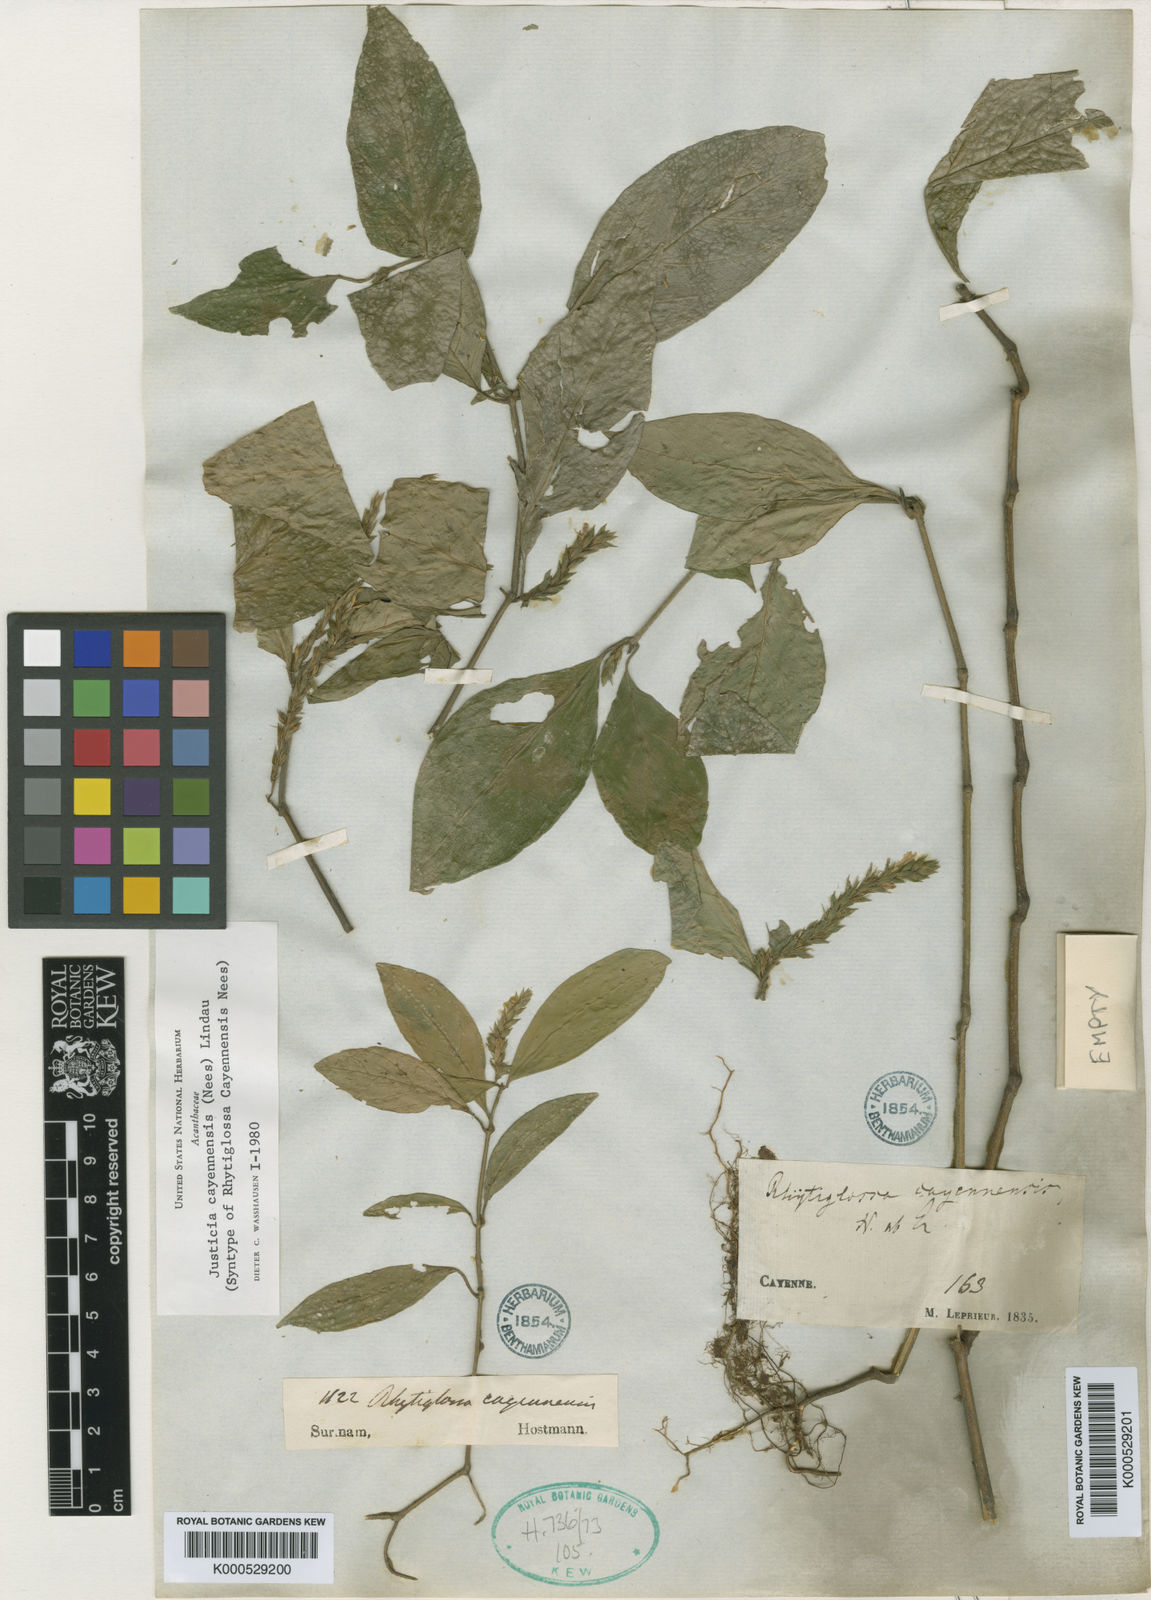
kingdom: Plantae
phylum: Tracheophyta
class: Magnoliopsida
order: Lamiales
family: Acanthaceae
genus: Dianthera
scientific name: Dianthera cayennensis
